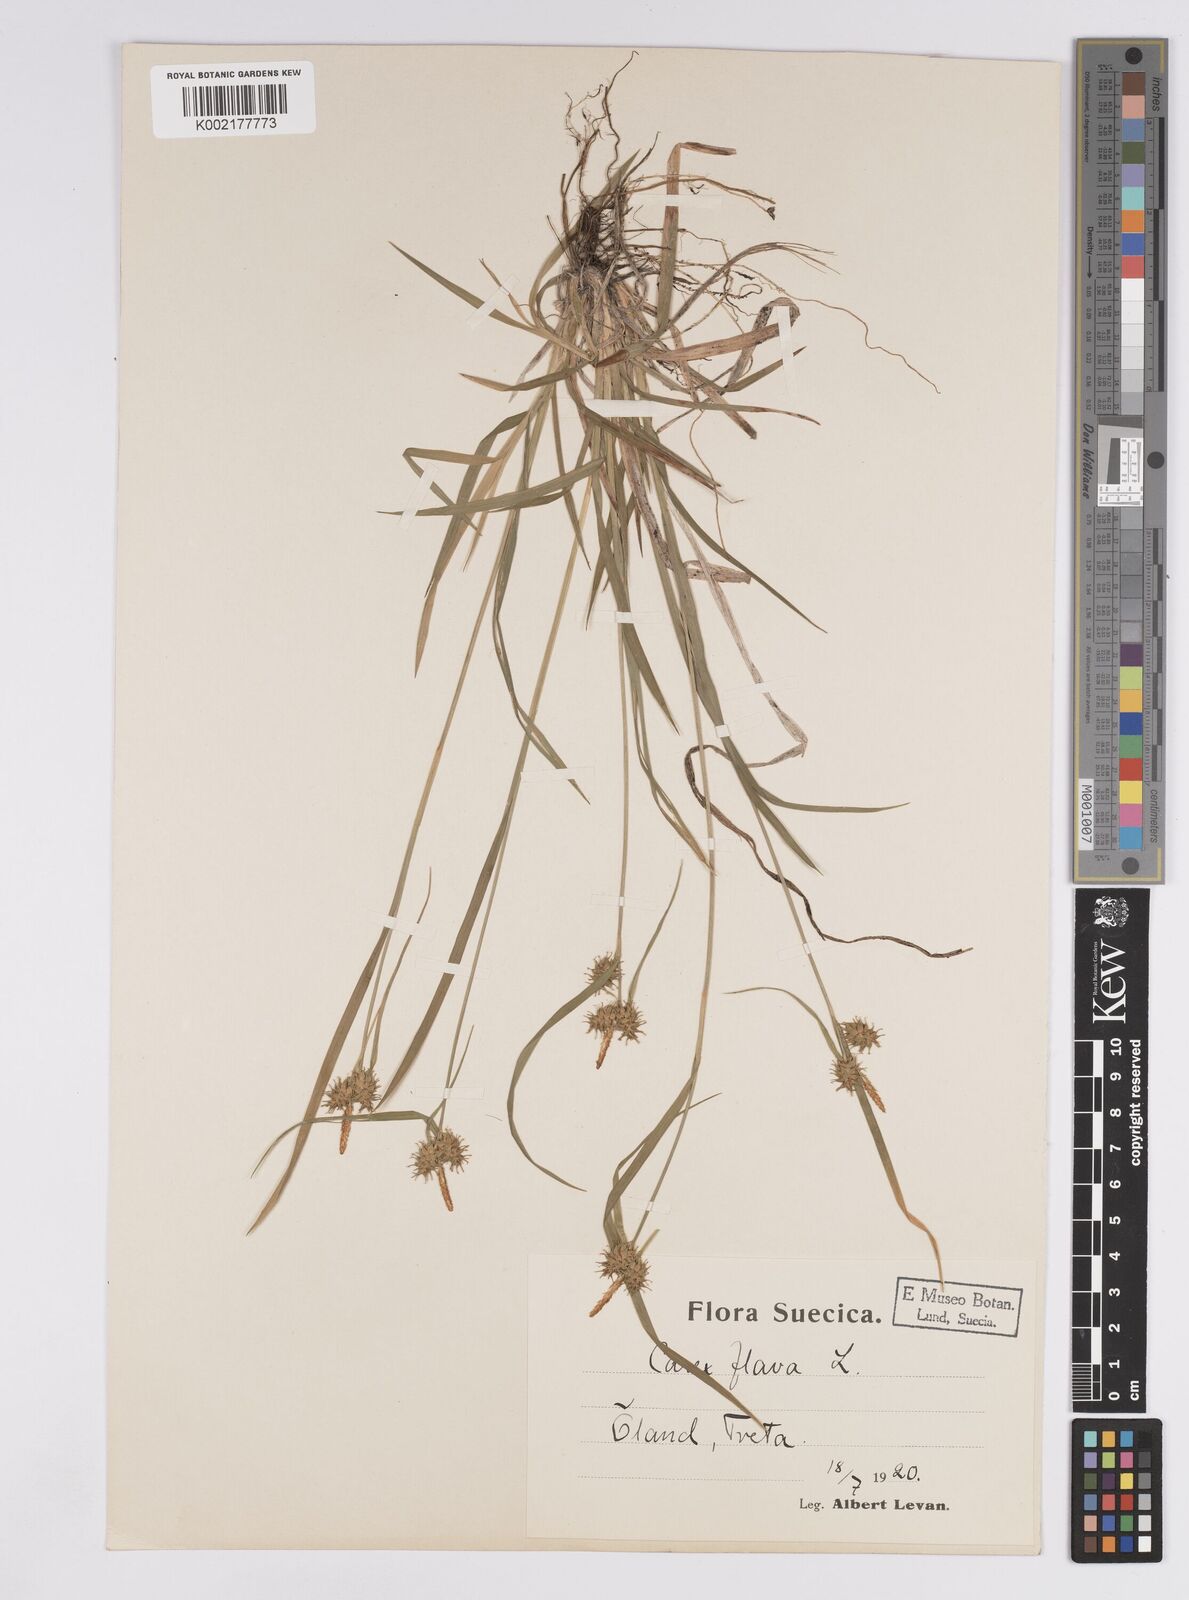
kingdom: Plantae
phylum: Tracheophyta
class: Liliopsida
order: Poales
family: Cyperaceae
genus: Carex
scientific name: Carex flava
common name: Large yellow-sedge
